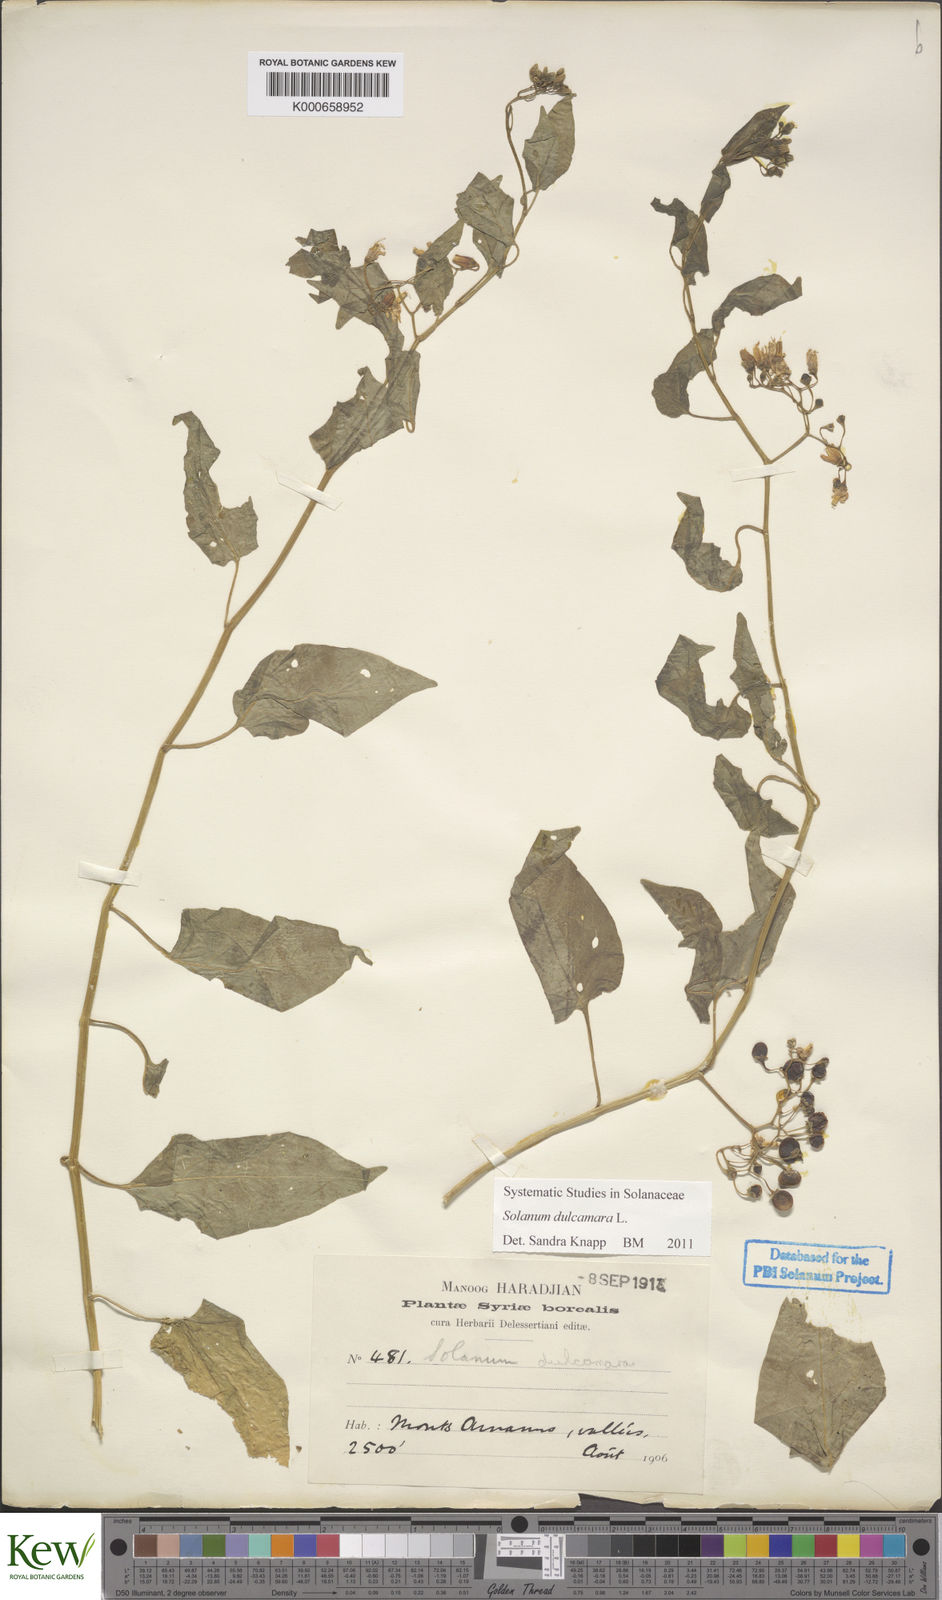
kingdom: Plantae
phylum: Tracheophyta
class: Magnoliopsida
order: Solanales
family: Solanaceae
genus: Solanum
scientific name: Solanum dulcamara
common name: Climbing nightshade
